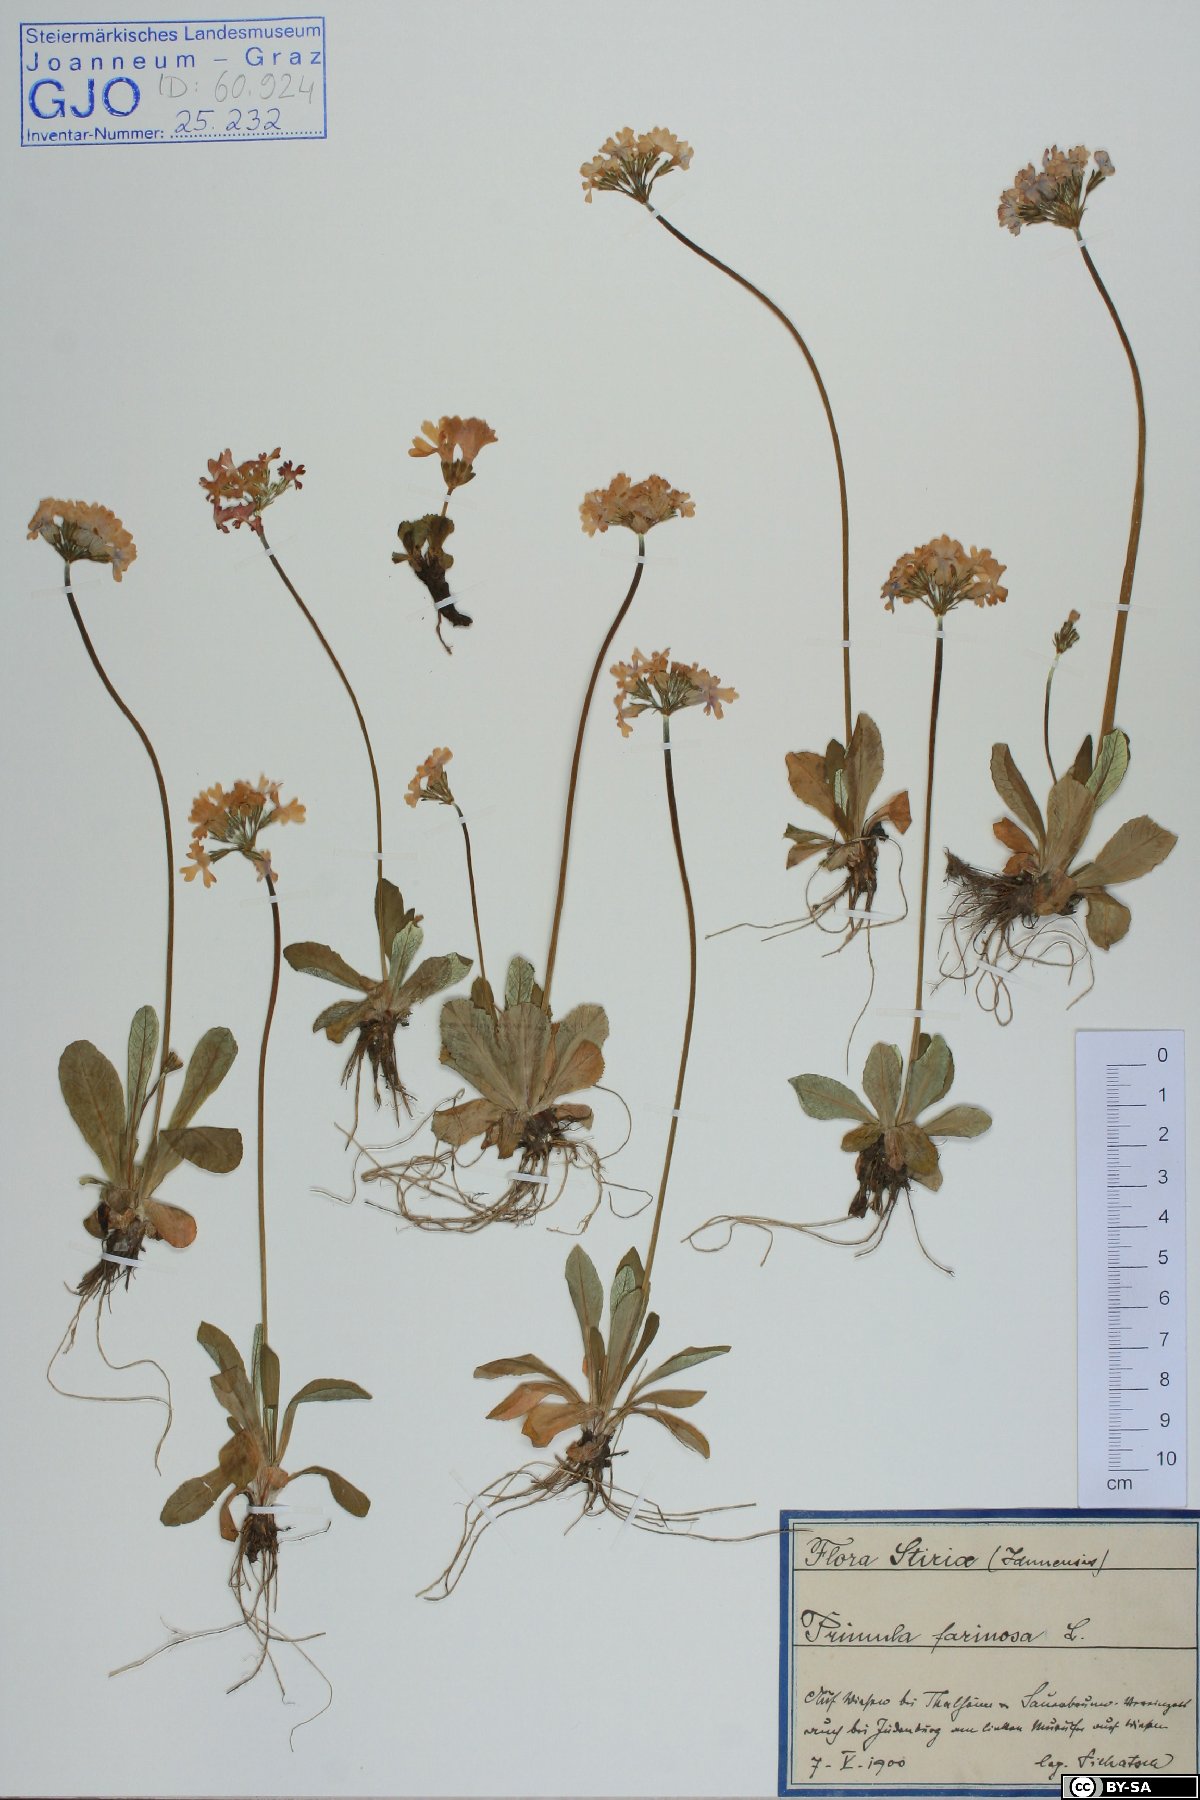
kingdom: Fungi
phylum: Basidiomycota
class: Agaricomycetes
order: Russulales
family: Russulaceae
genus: Russula
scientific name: Russula sardonia
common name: Primrose brittlegill
